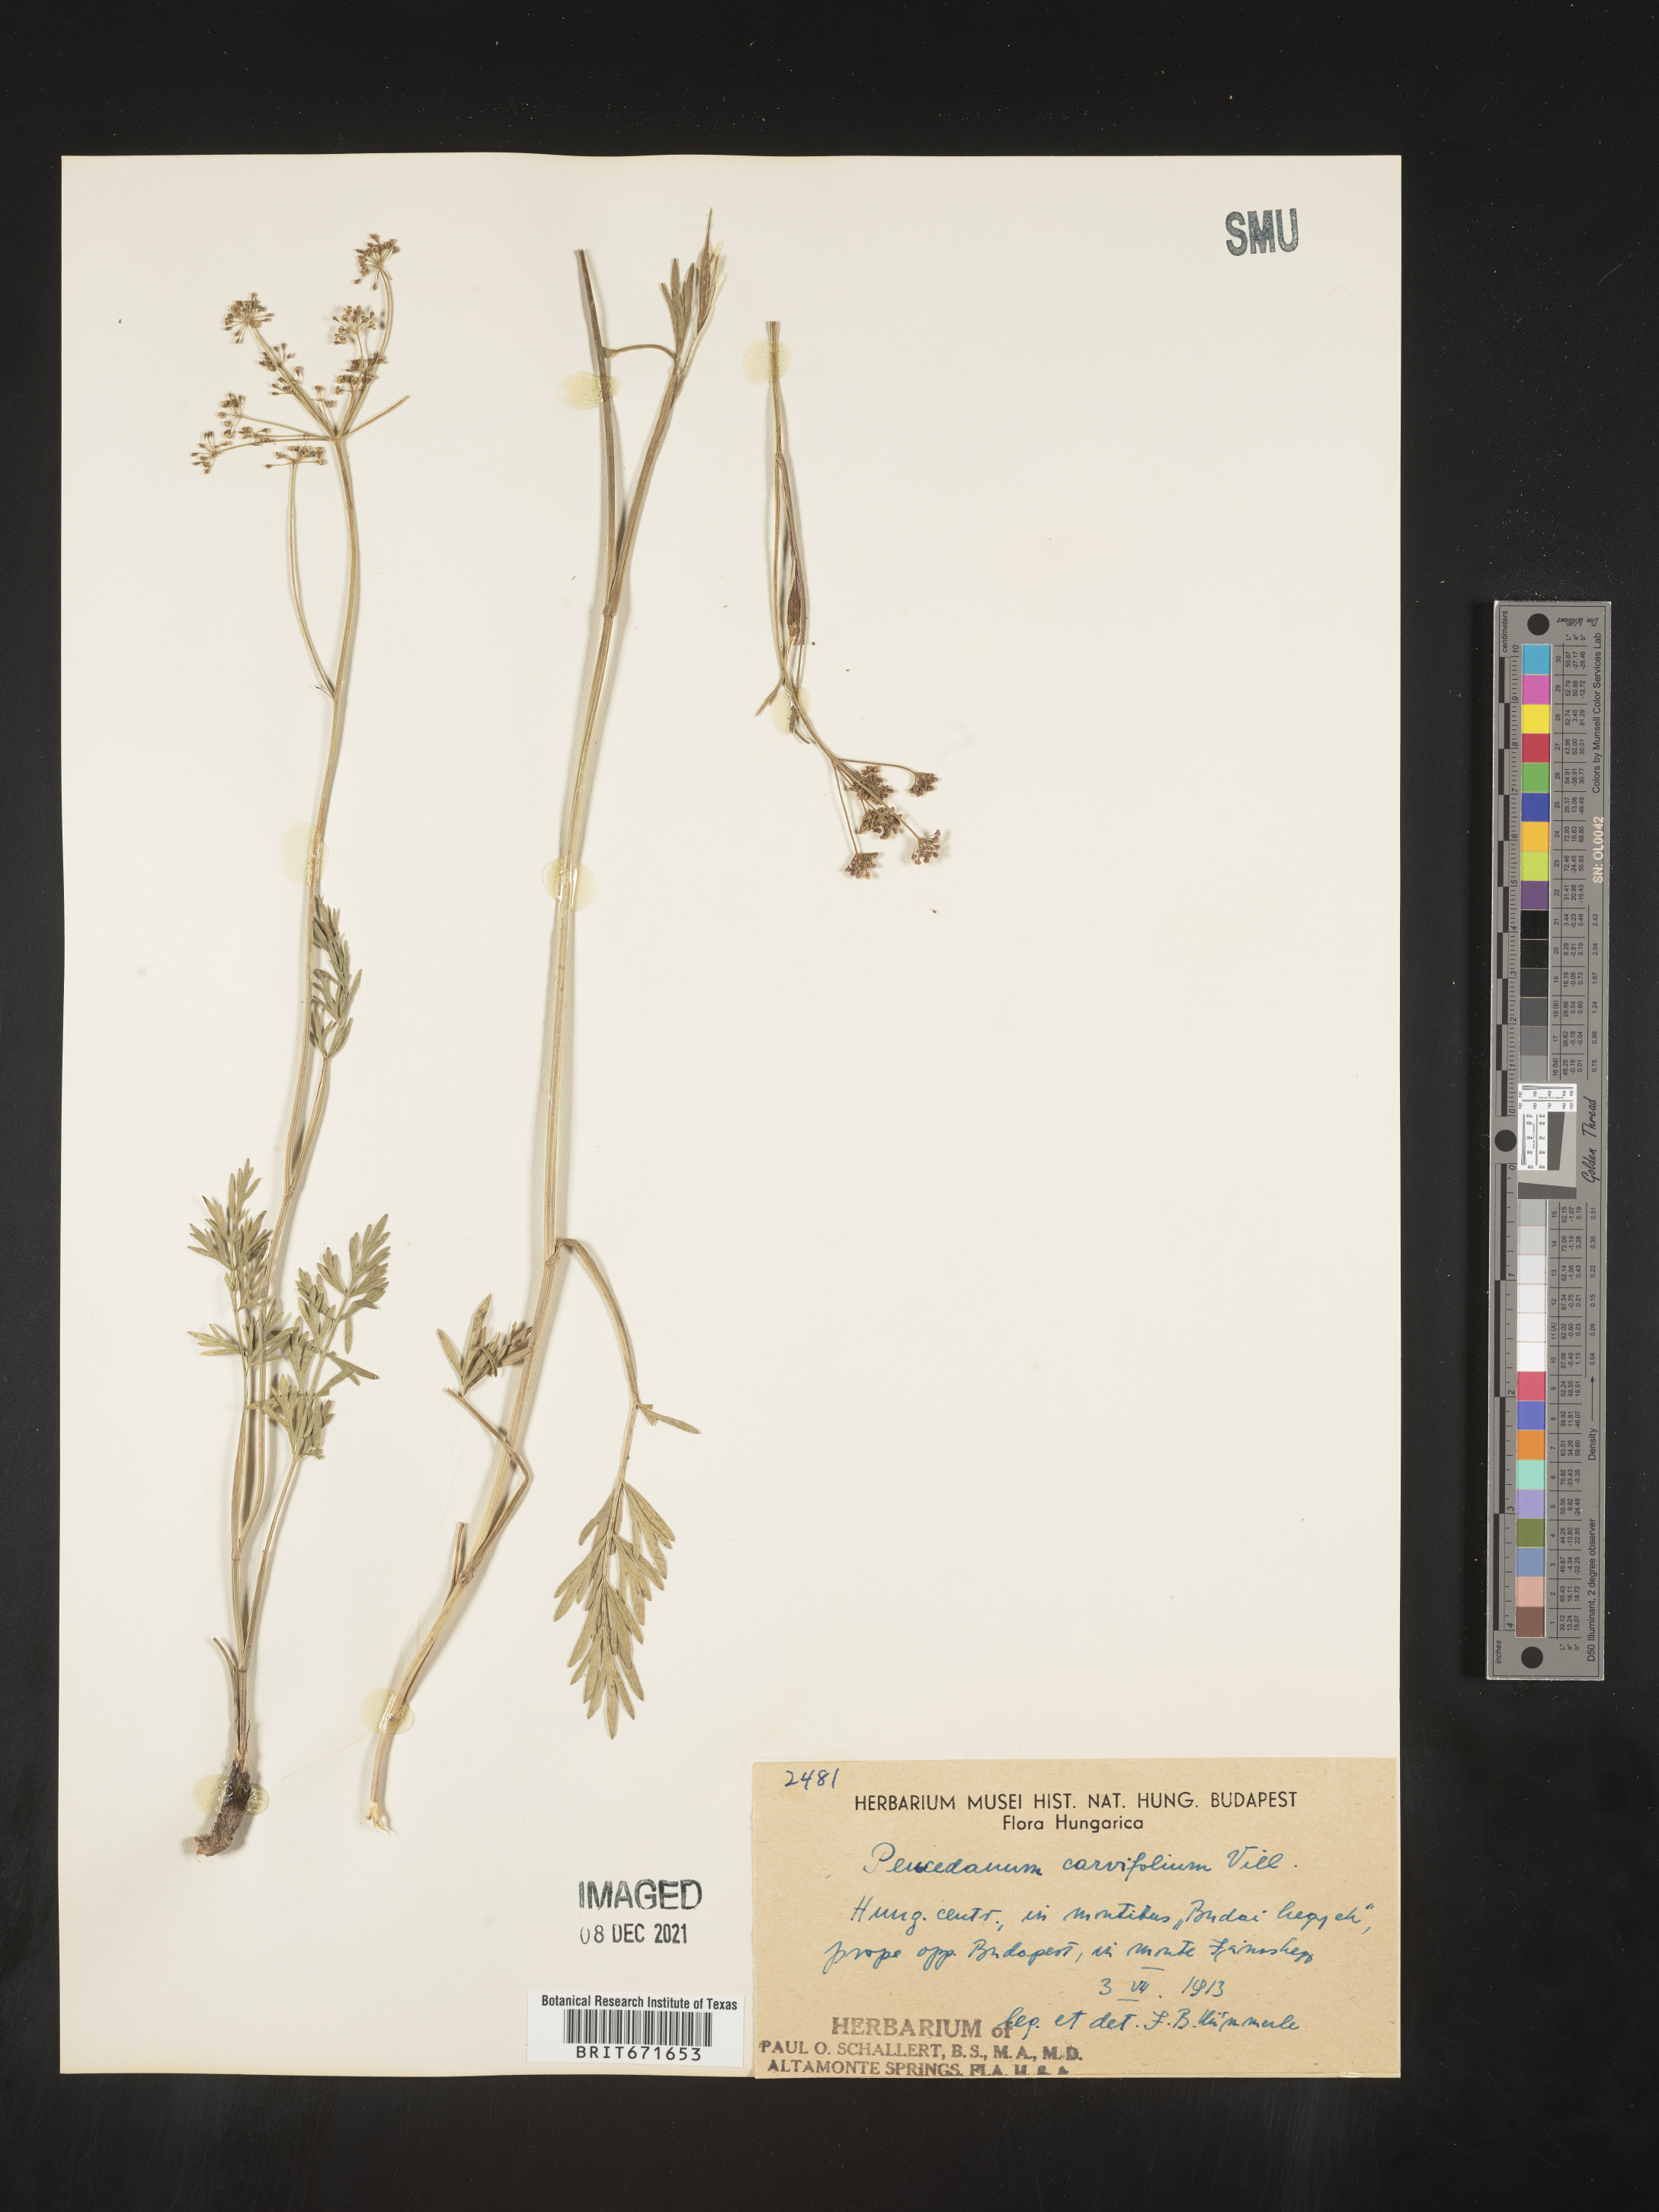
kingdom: Plantae
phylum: Tracheophyta
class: Magnoliopsida
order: Apiales
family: Apiaceae
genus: Peucedanum
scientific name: Peucedanum
